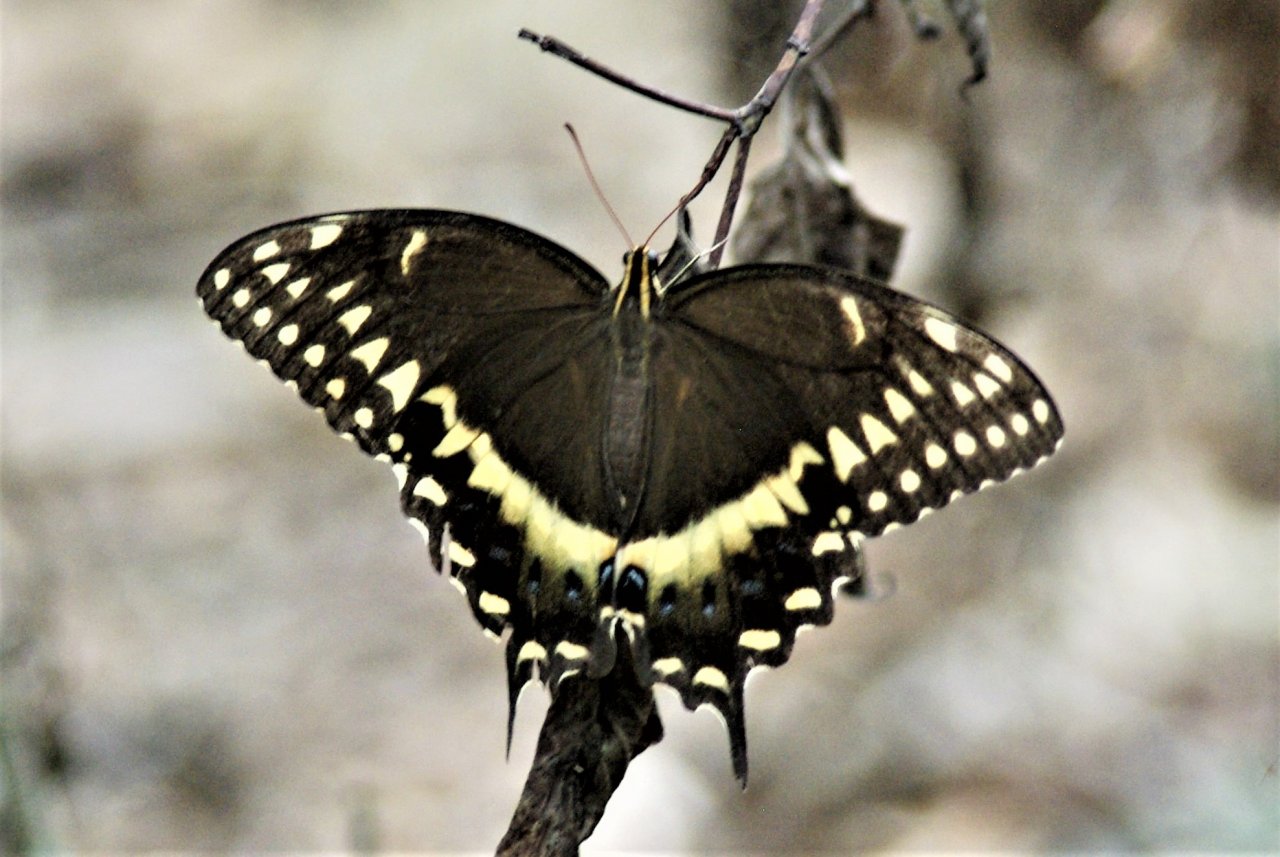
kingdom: Animalia
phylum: Arthropoda
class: Insecta
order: Lepidoptera
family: Papilionidae
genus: Pterourus
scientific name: Pterourus palamedes
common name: Palamedes Swallowtail
